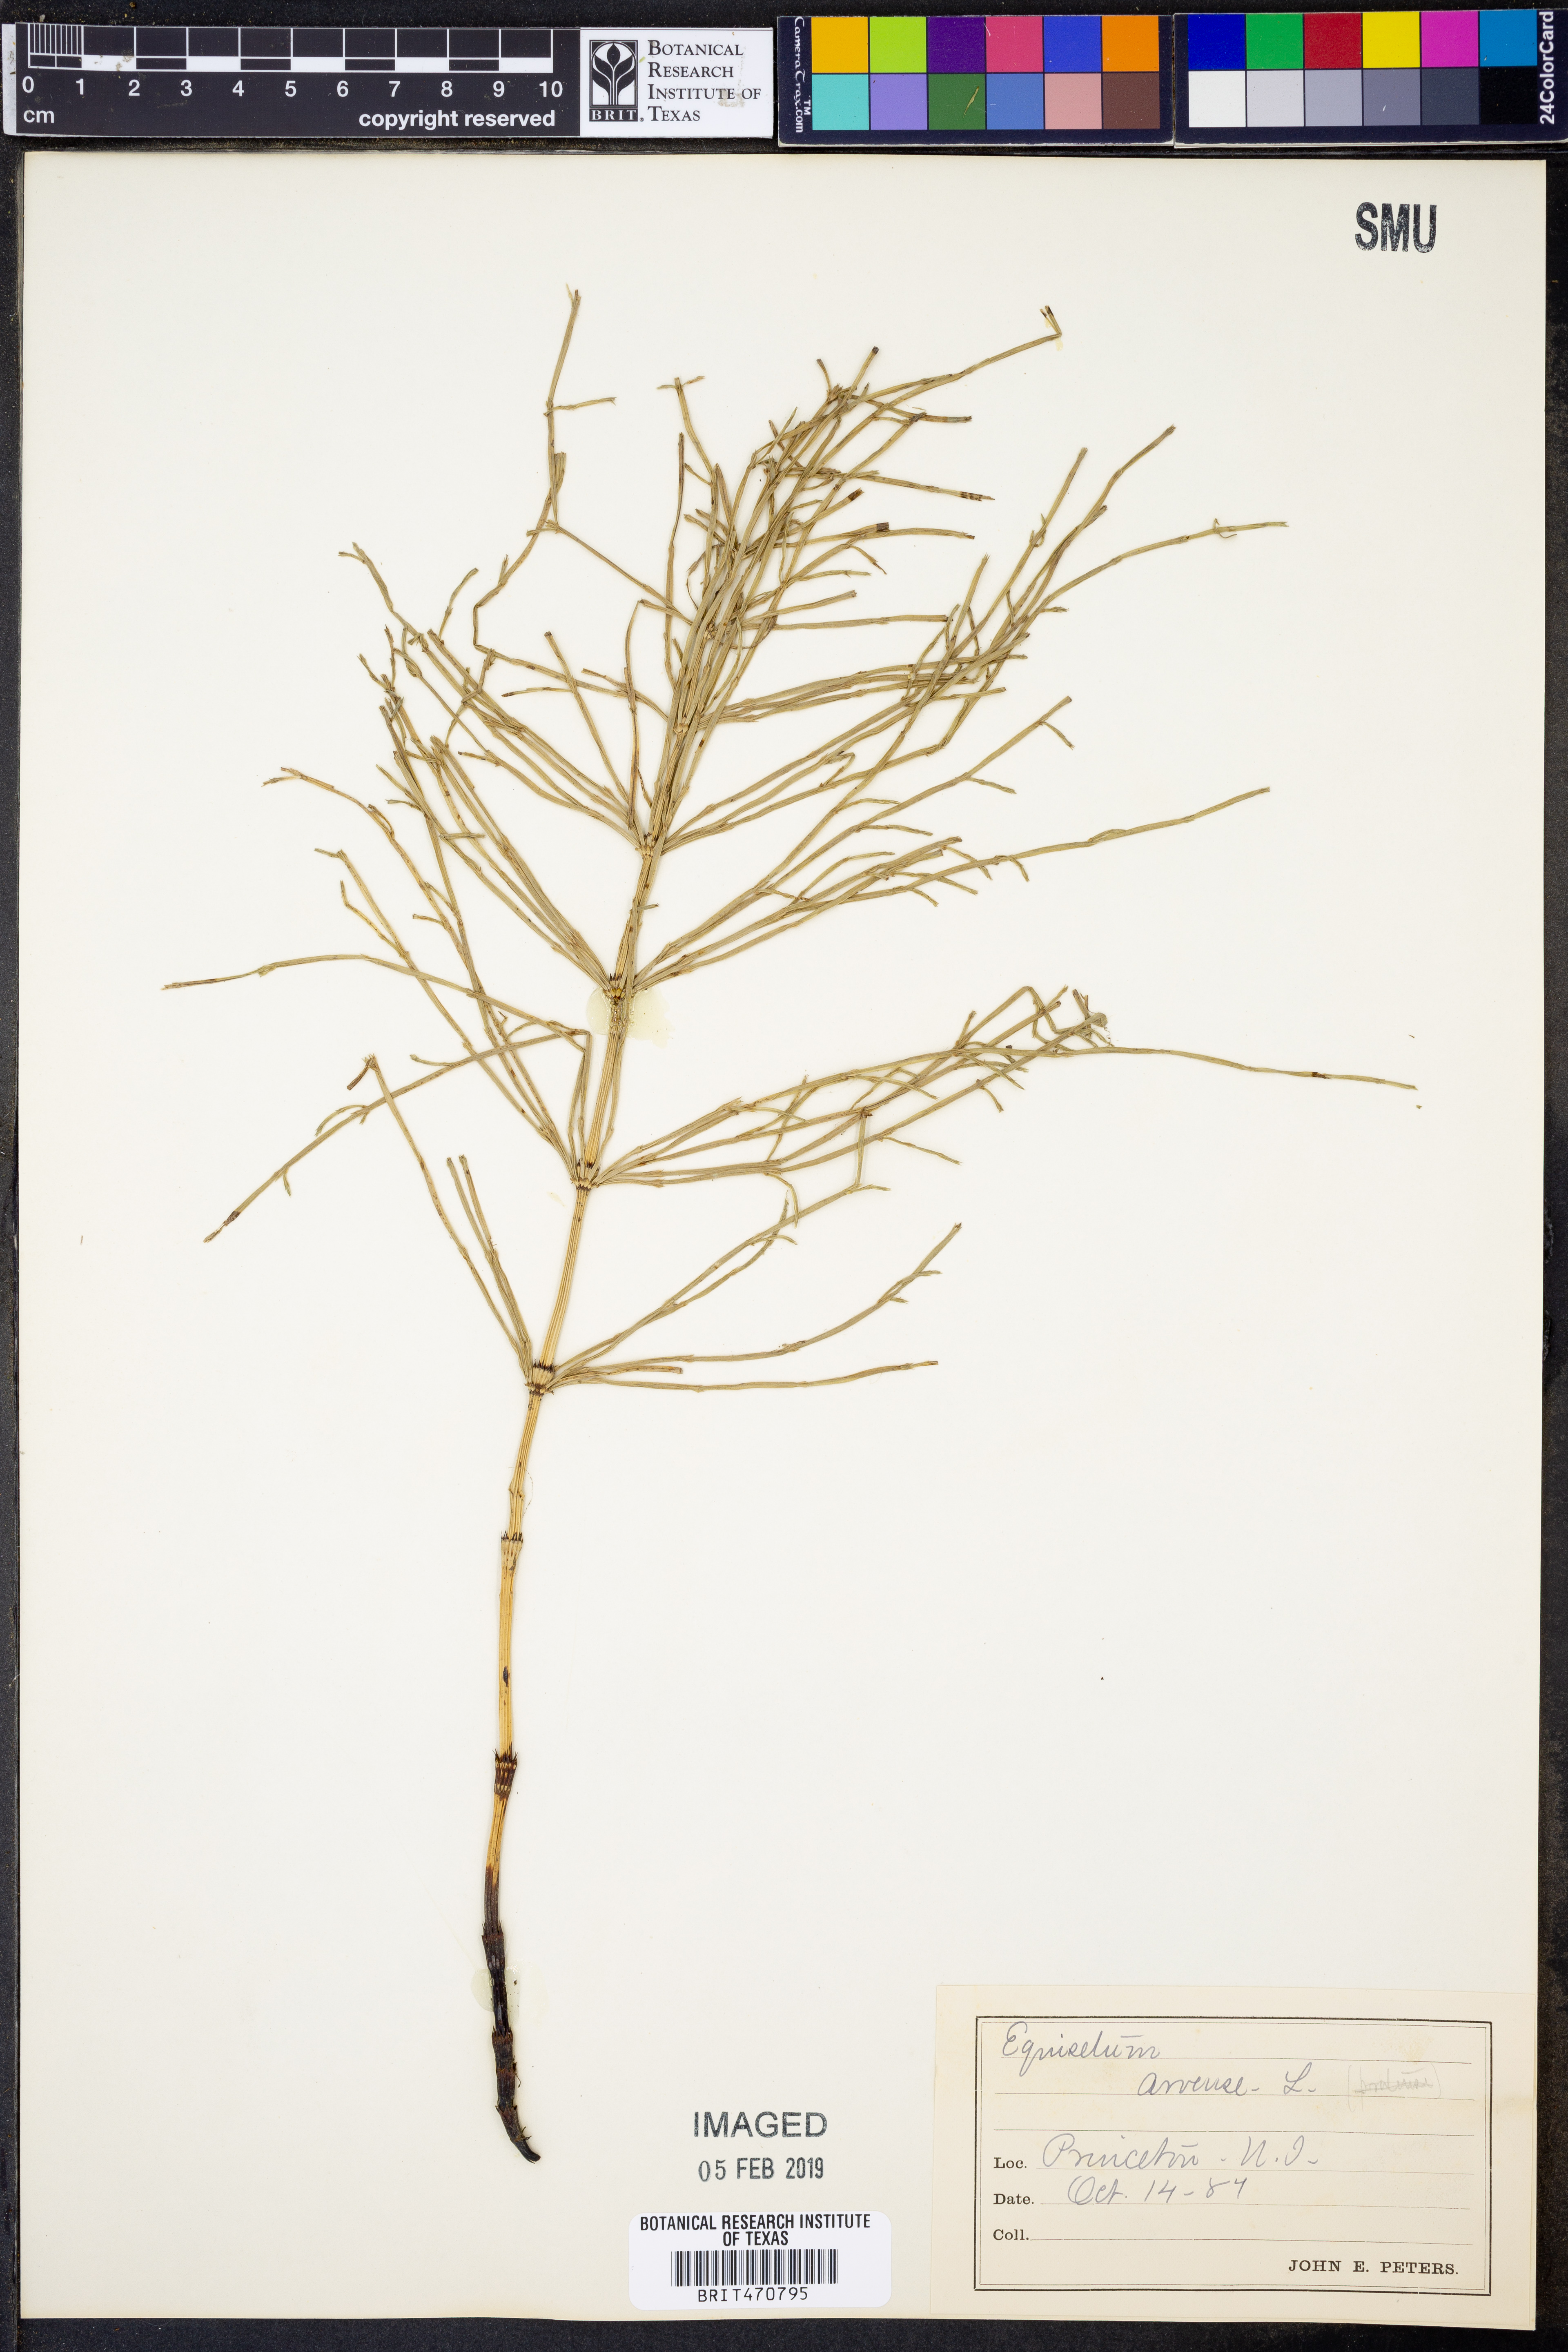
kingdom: Plantae
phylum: Tracheophyta
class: Polypodiopsida
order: Equisetales
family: Equisetaceae
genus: Equisetum
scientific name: Equisetum arvense
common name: Field horsetail
